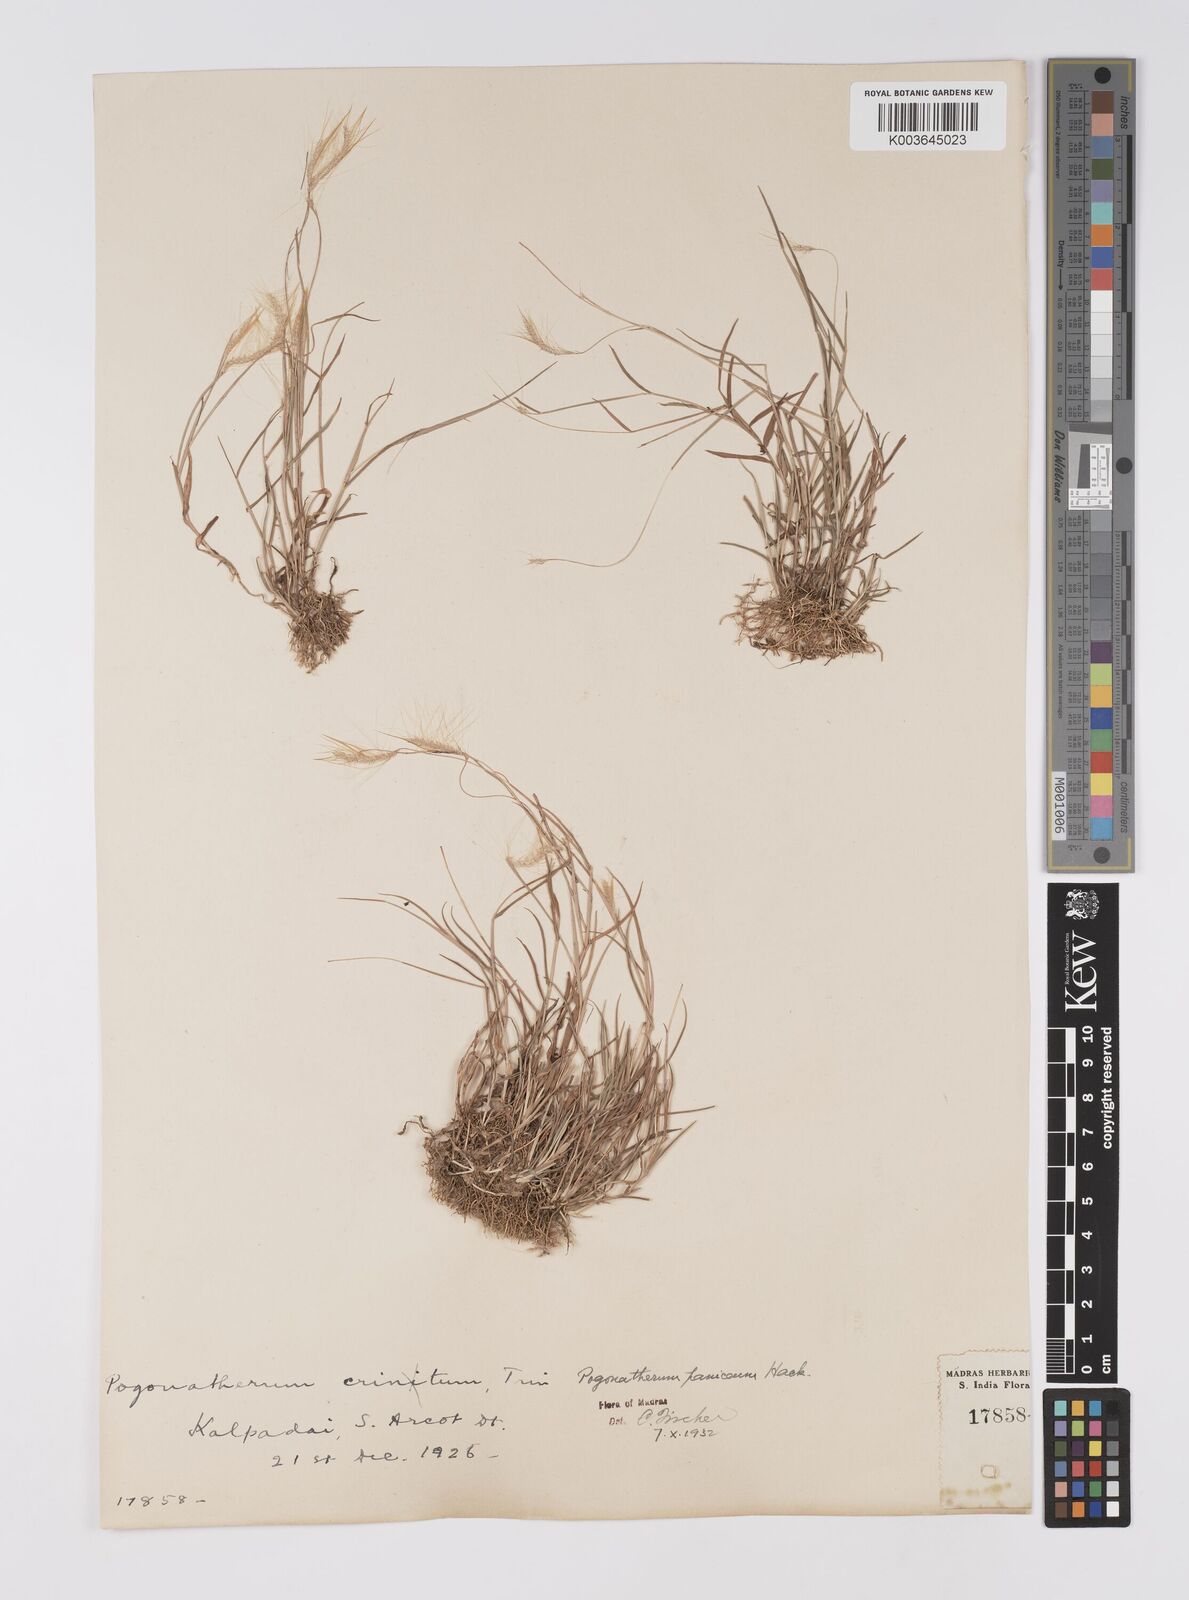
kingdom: Plantae
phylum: Tracheophyta
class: Liliopsida
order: Poales
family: Poaceae
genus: Pogonatherum
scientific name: Pogonatherum crinitum
